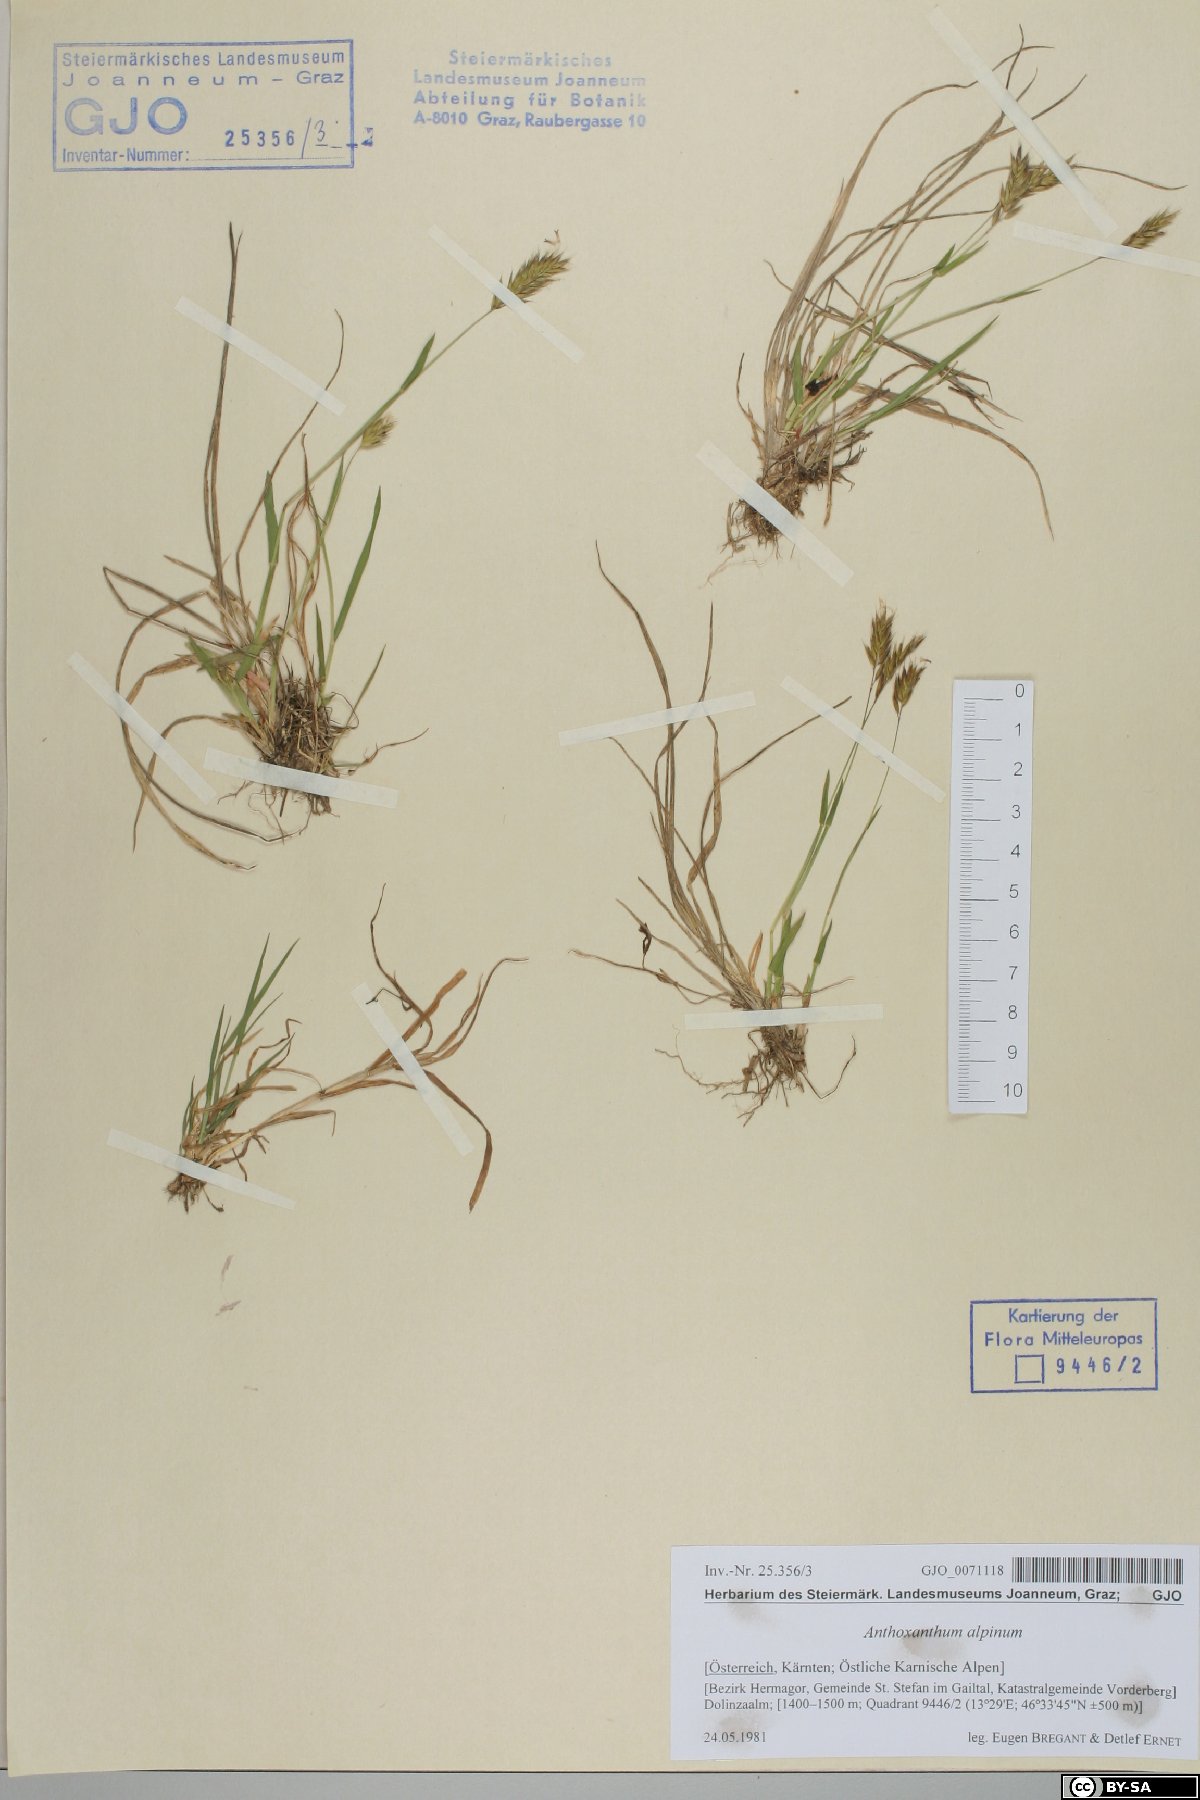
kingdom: Plantae
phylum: Tracheophyta
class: Liliopsida
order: Poales
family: Poaceae
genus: Anthoxanthum
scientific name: Anthoxanthum nipponicum
